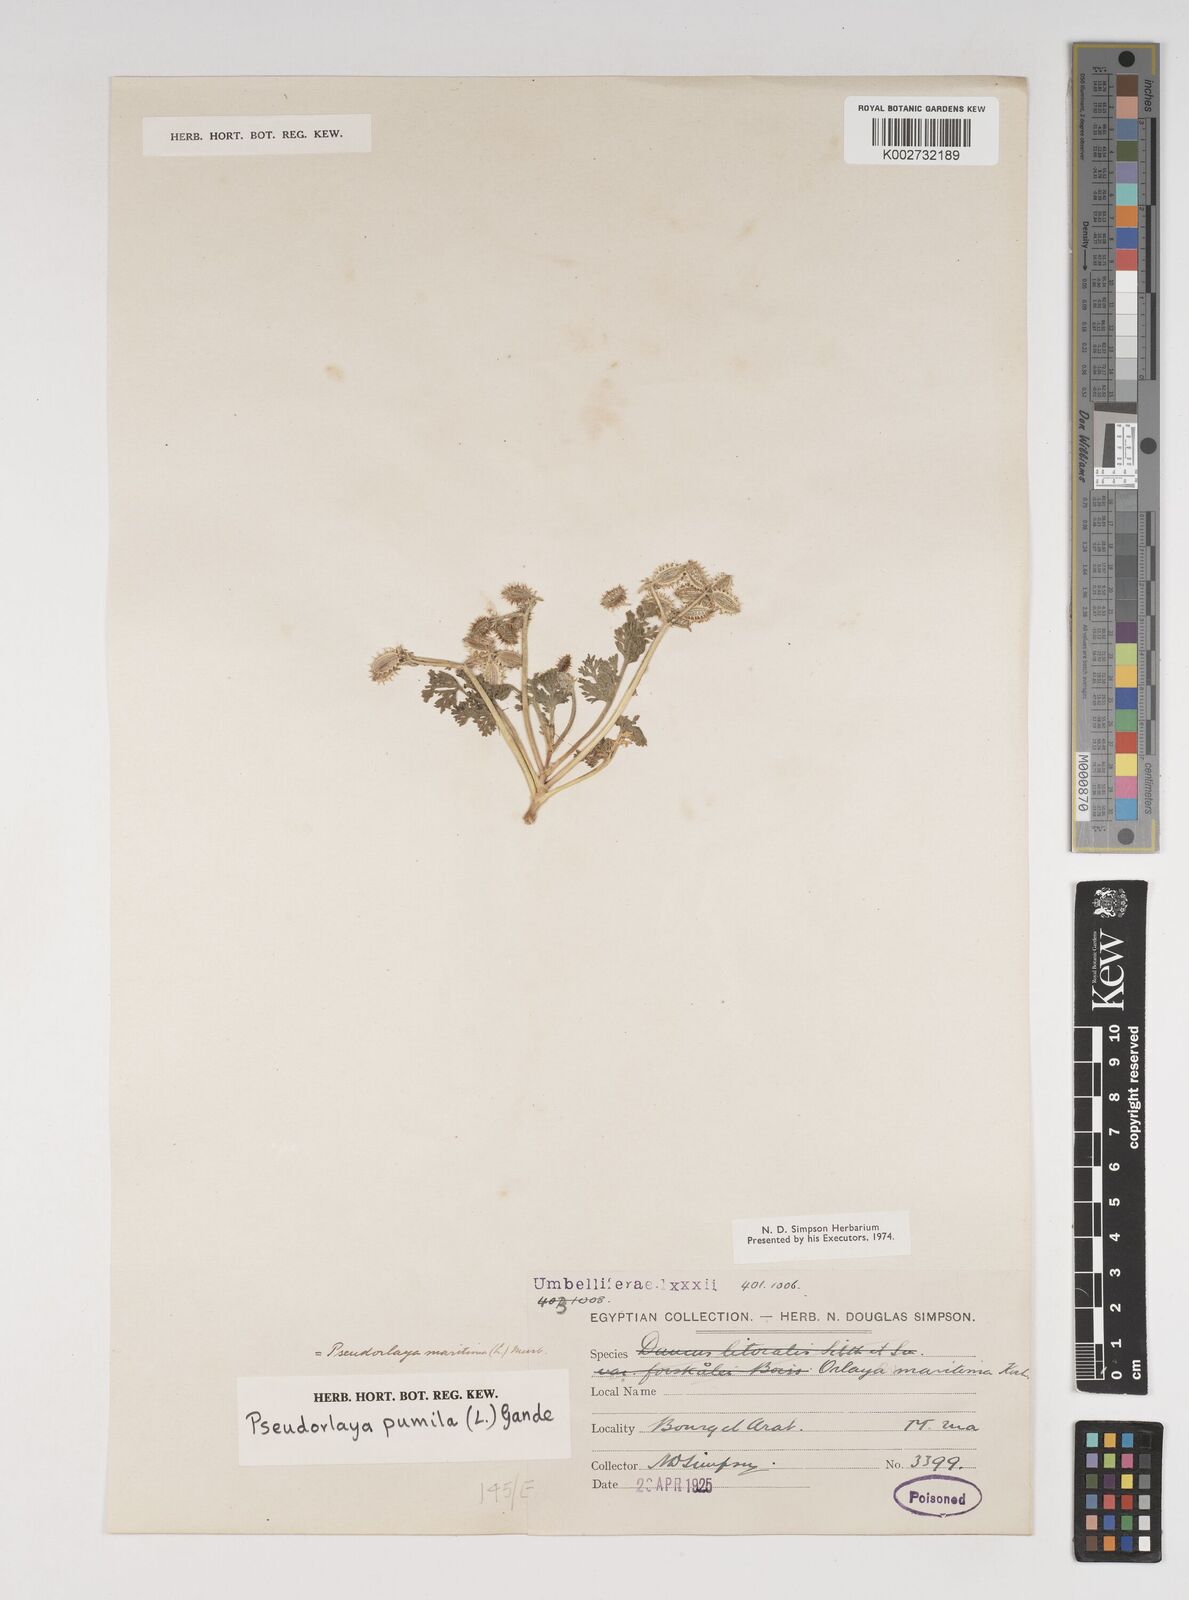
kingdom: Plantae
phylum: Tracheophyta
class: Magnoliopsida
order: Apiales
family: Apiaceae
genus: Daucus
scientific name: Daucus pumilus
